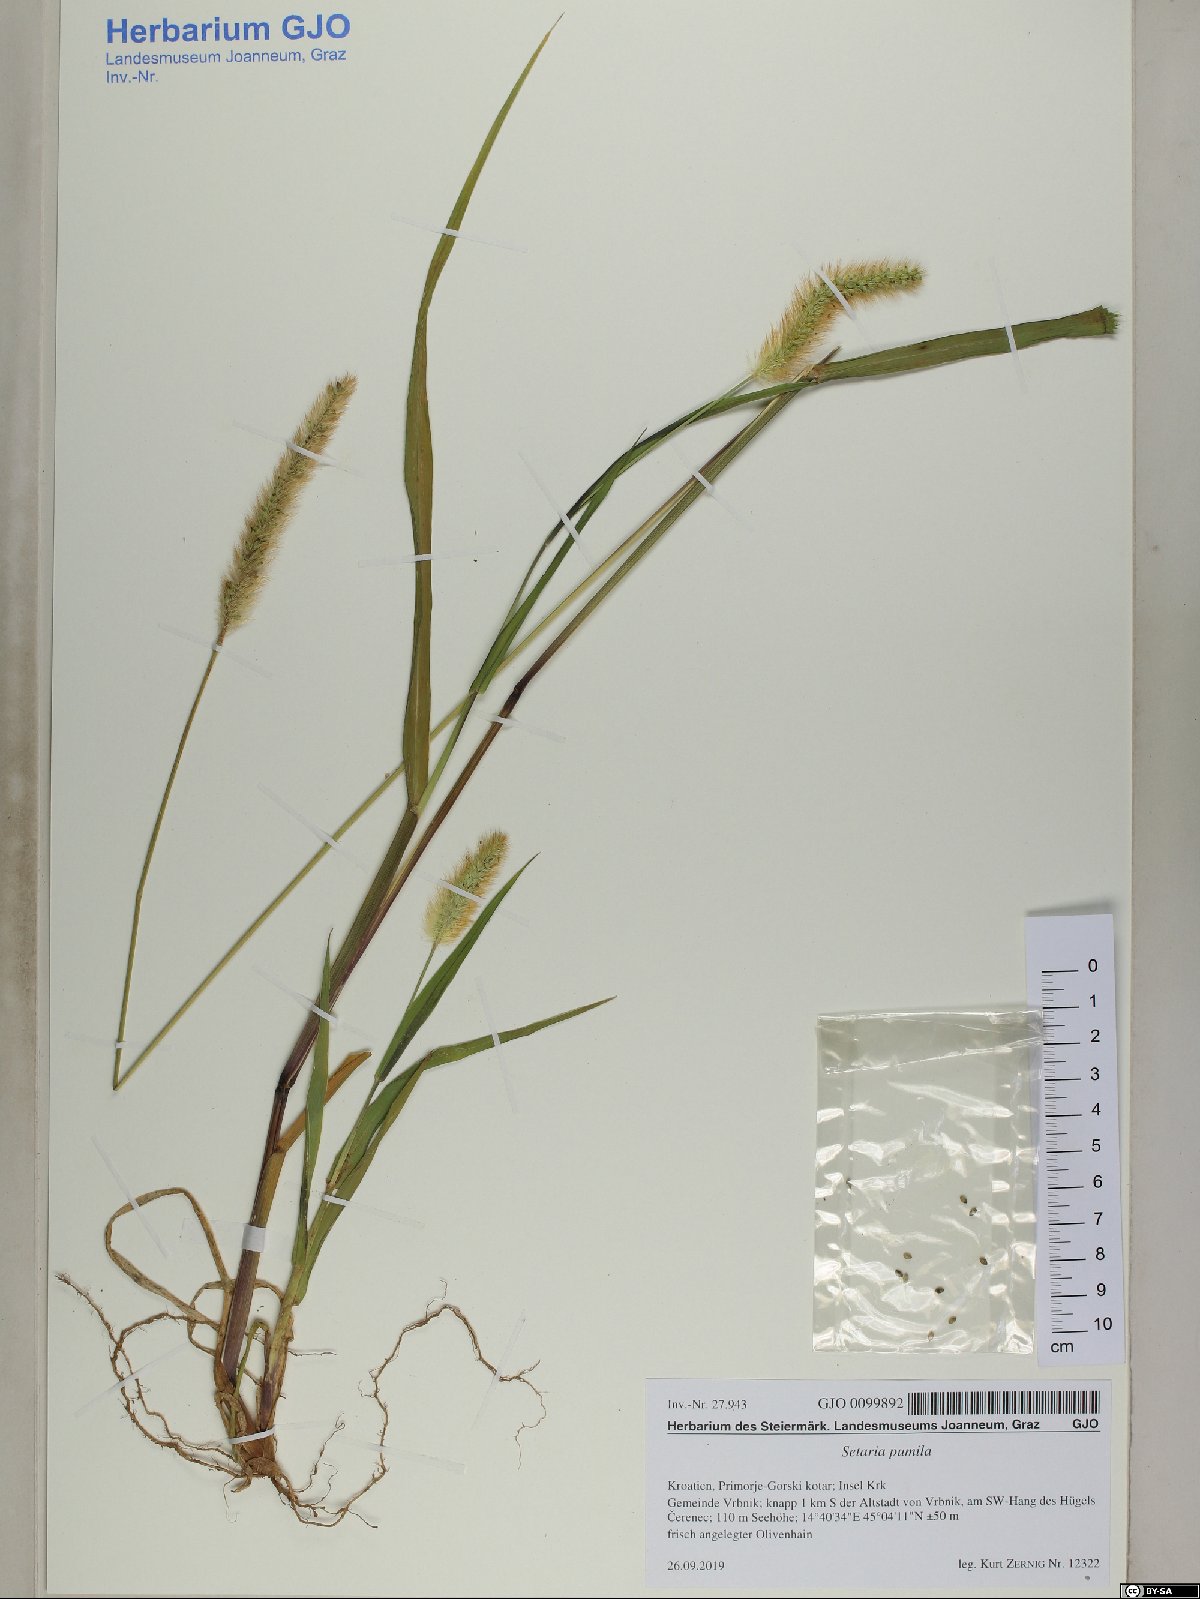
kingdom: Plantae
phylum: Tracheophyta
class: Liliopsida
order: Poales
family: Poaceae
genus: Setaria
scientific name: Setaria pumila
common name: Yellow bristle-grass
